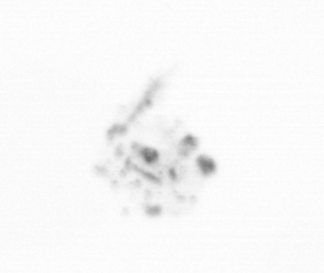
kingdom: Chromista
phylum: Ochrophyta
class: Bacillariophyceae
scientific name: Bacillariophyceae
